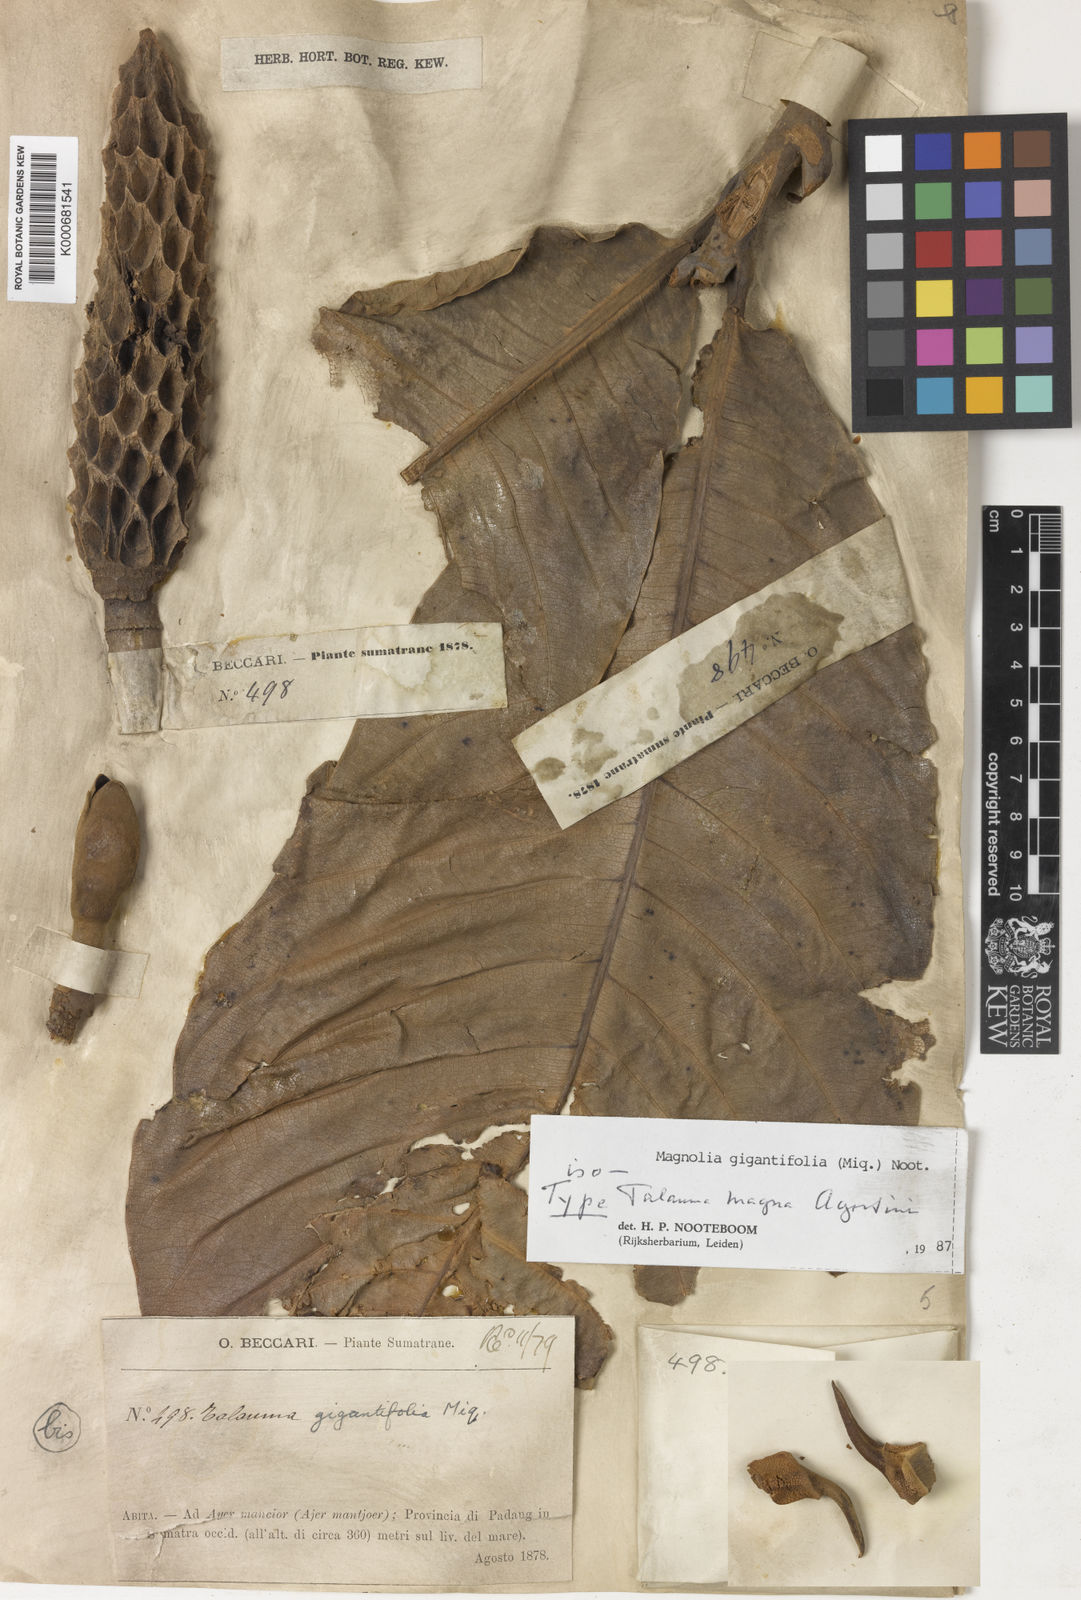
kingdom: Plantae
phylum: Tracheophyta
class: Magnoliopsida
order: Magnoliales
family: Magnoliaceae
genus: Magnolia
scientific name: Magnolia gigantifolia
